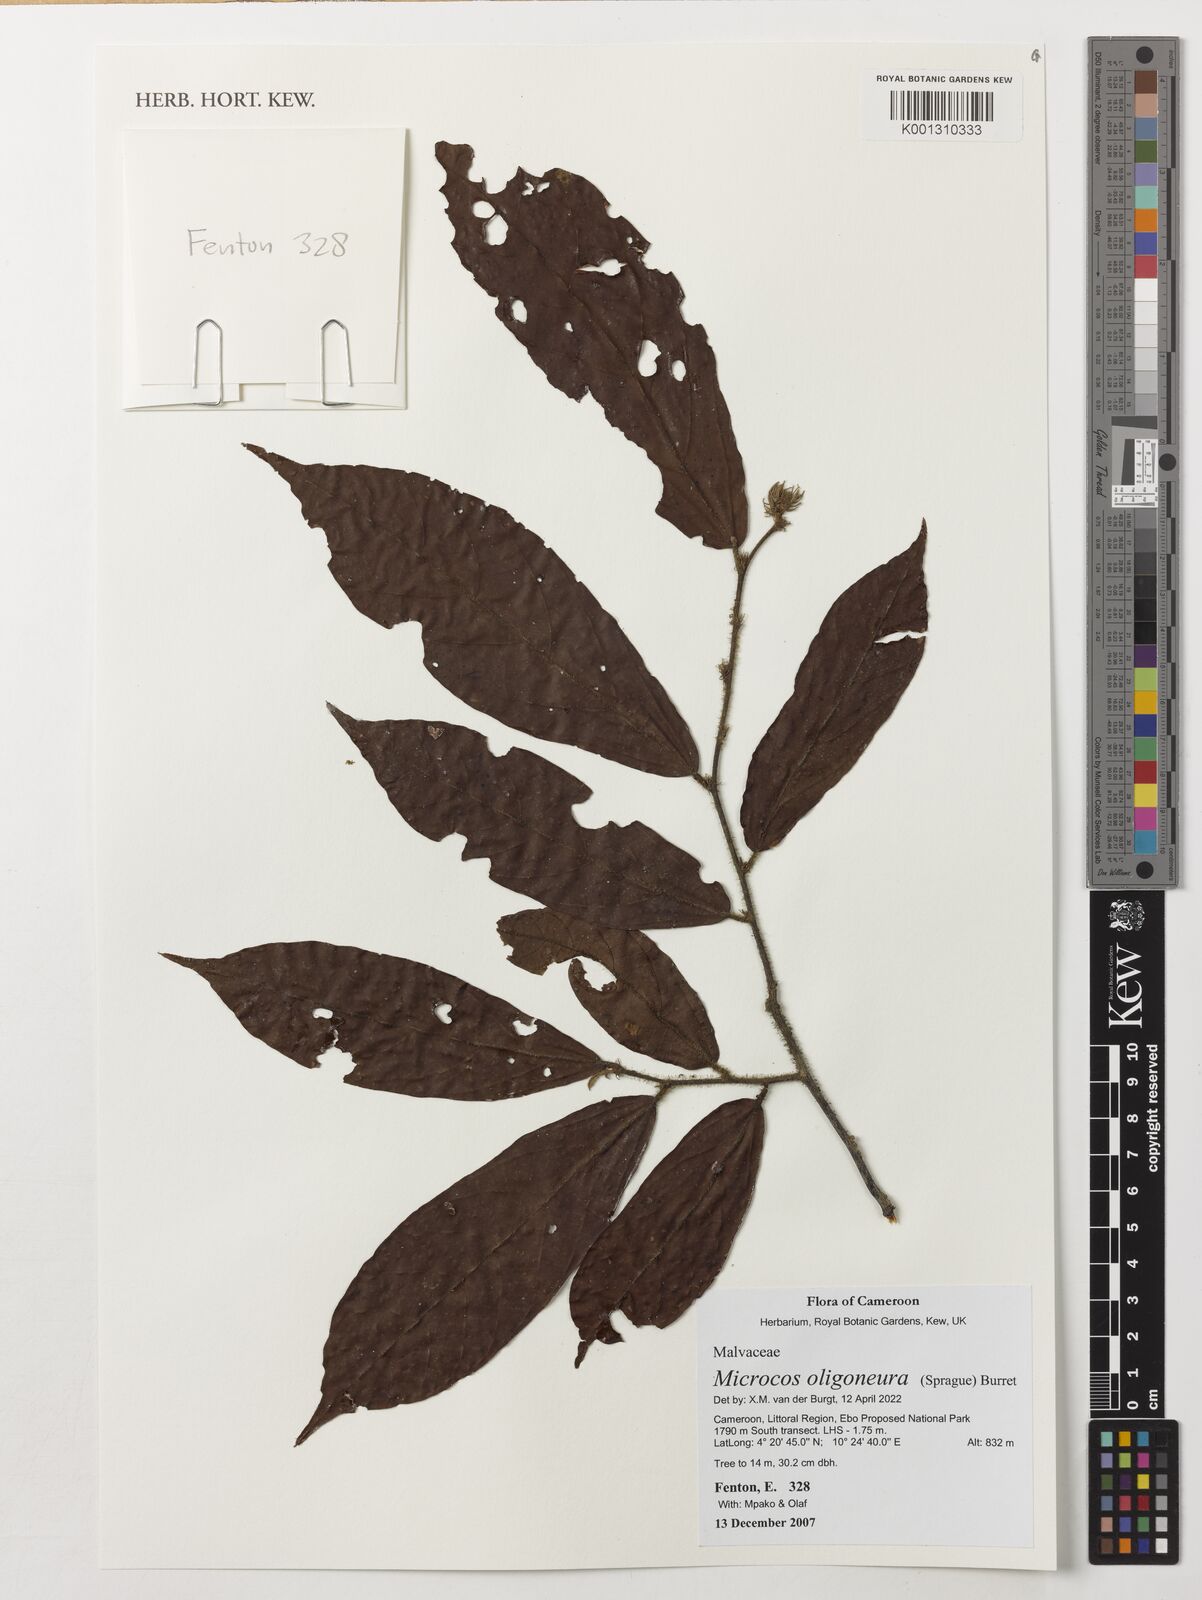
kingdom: Plantae
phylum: Tracheophyta
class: Magnoliopsida
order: Malvales
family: Malvaceae
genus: Microcos
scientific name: Microcos oligoneura
